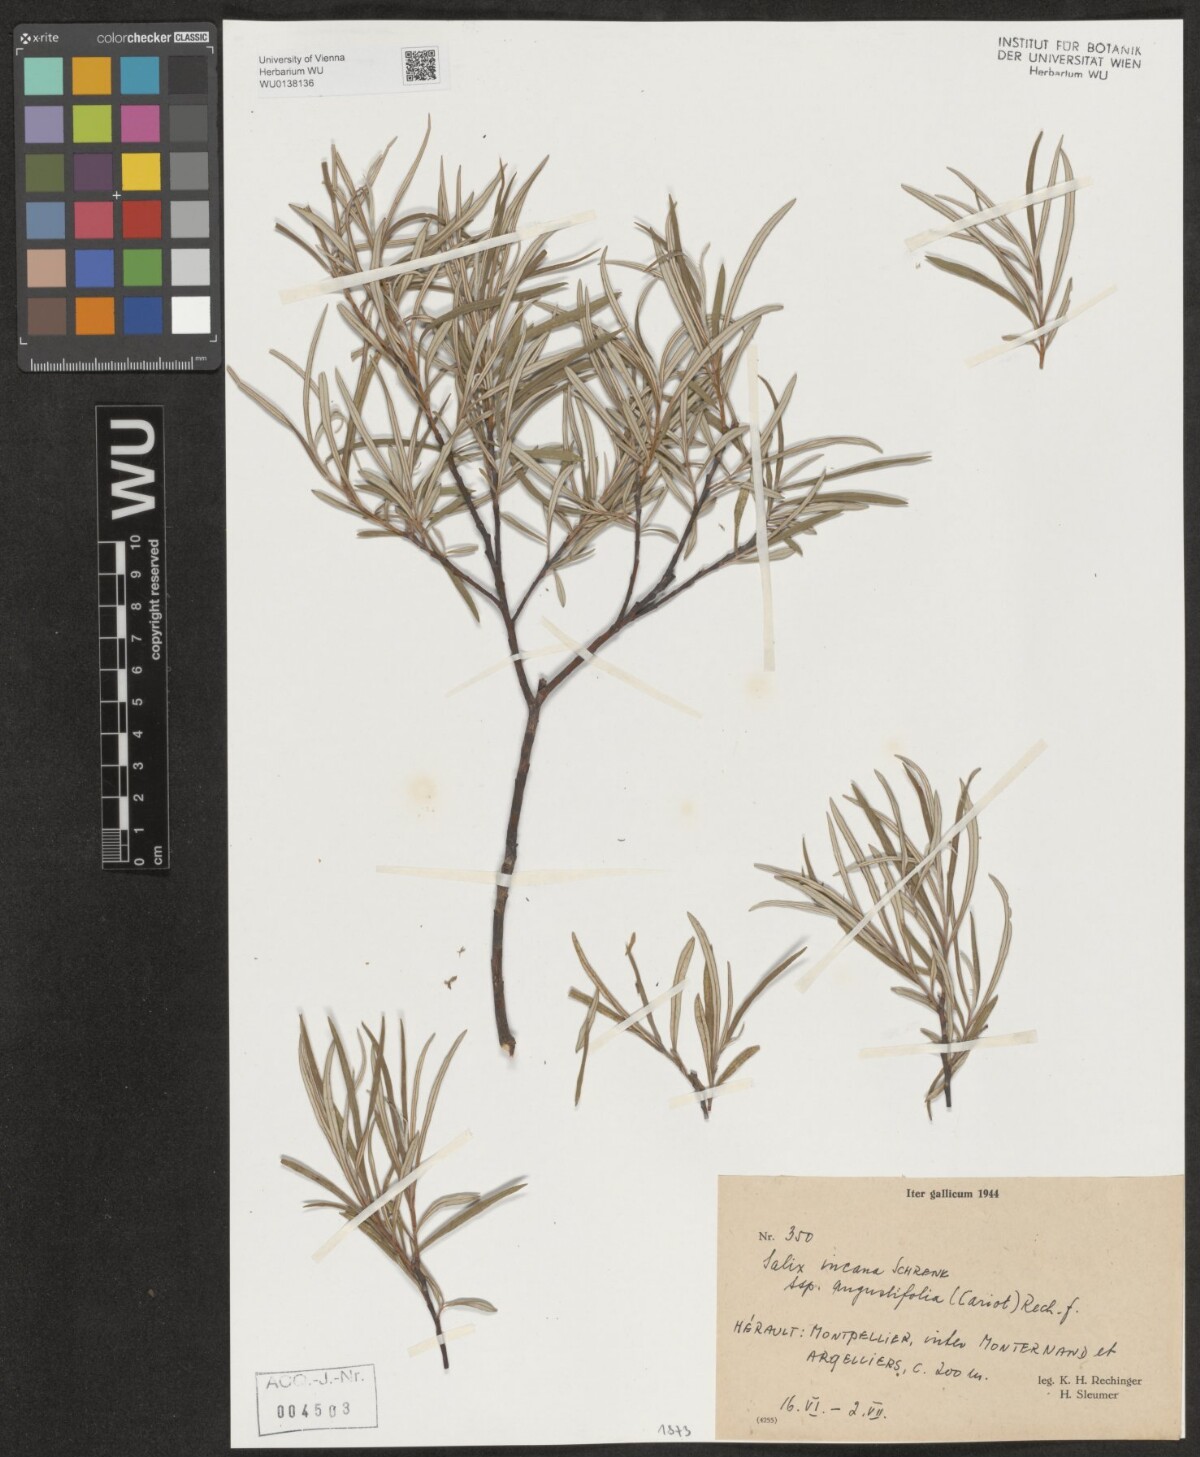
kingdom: Plantae
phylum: Tracheophyta
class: Magnoliopsida
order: Malpighiales
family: Salicaceae
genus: Salix
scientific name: Salix eleagnos
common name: Elaeagnus willow
